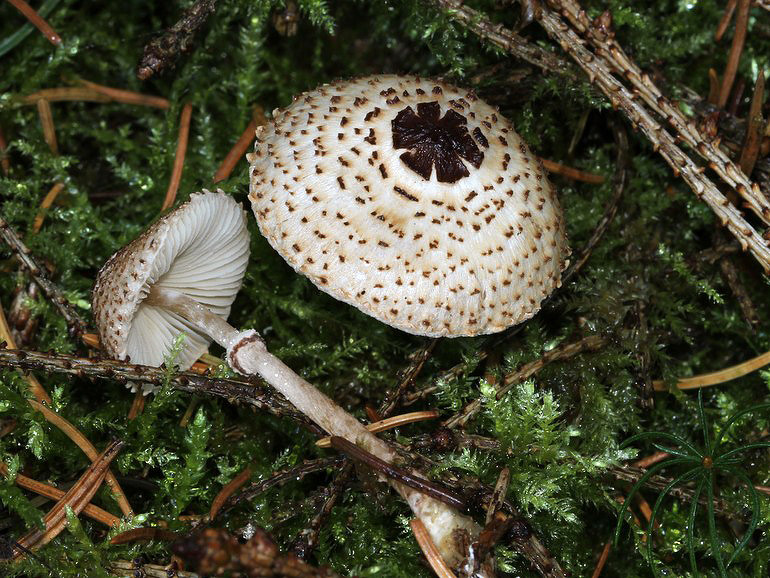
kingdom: Fungi
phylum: Basidiomycota
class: Agaricomycetes
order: Agaricales
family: Agaricaceae
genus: Lepiota
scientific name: Lepiota felina
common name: sortskællet parasolhat
